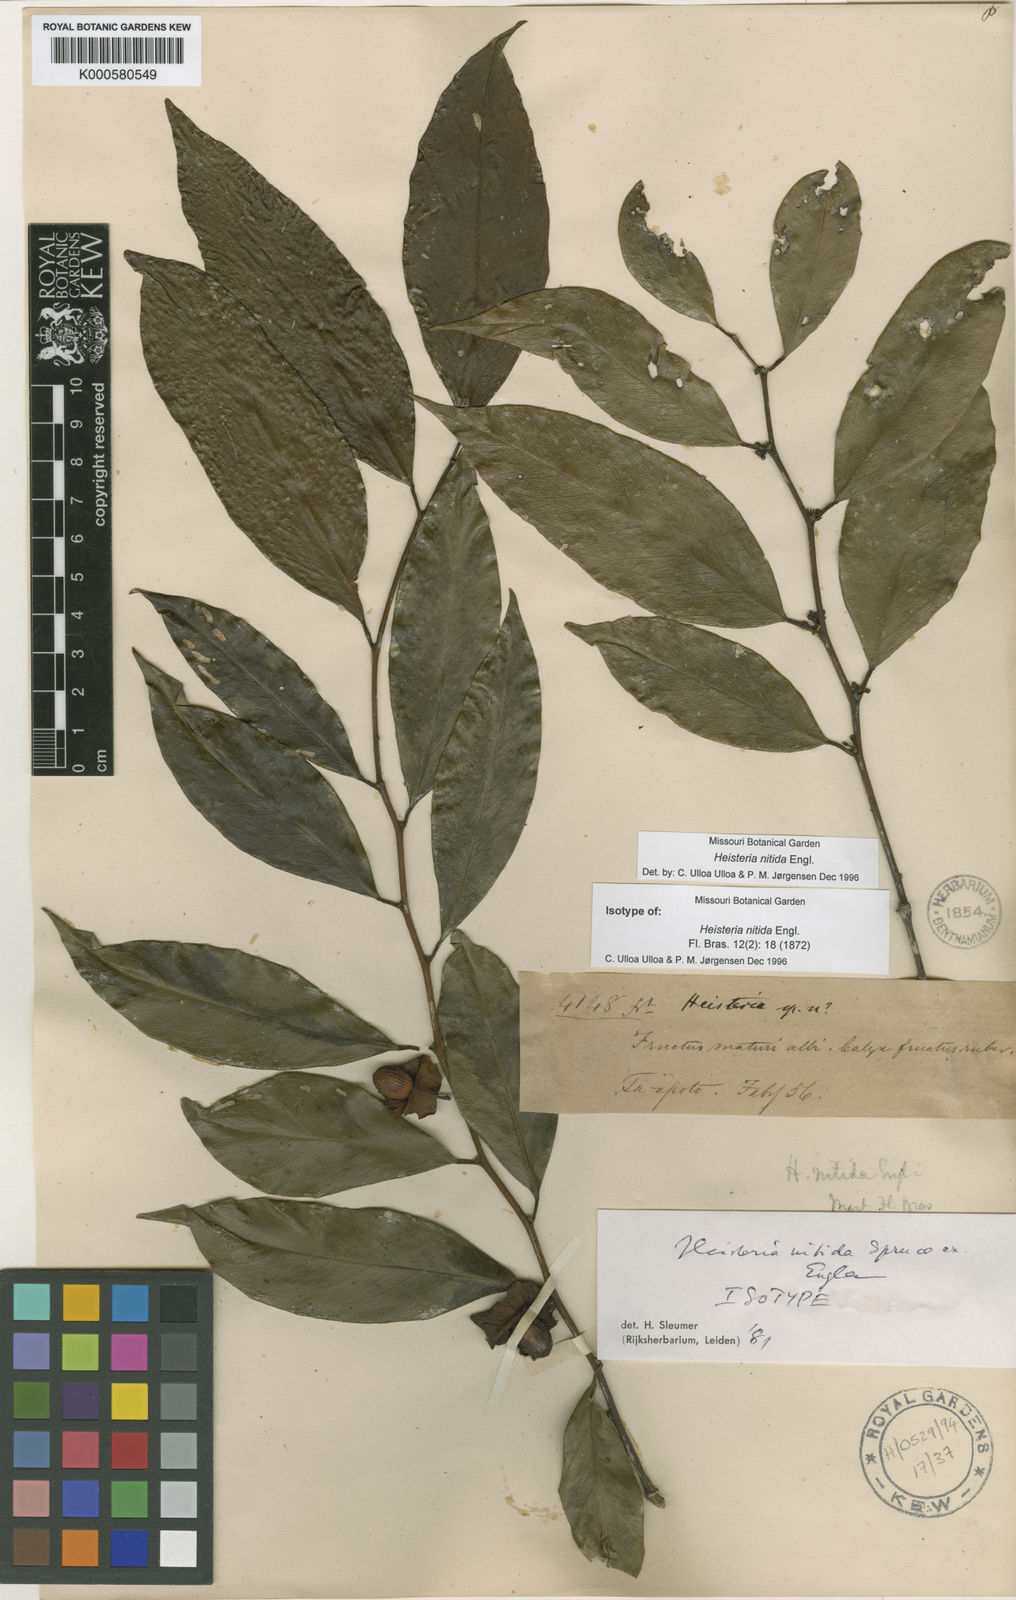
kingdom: Plantae
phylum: Tracheophyta
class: Magnoliopsida
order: Santalales
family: Erythropalaceae
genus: Heisteria
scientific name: Heisteria nitida
